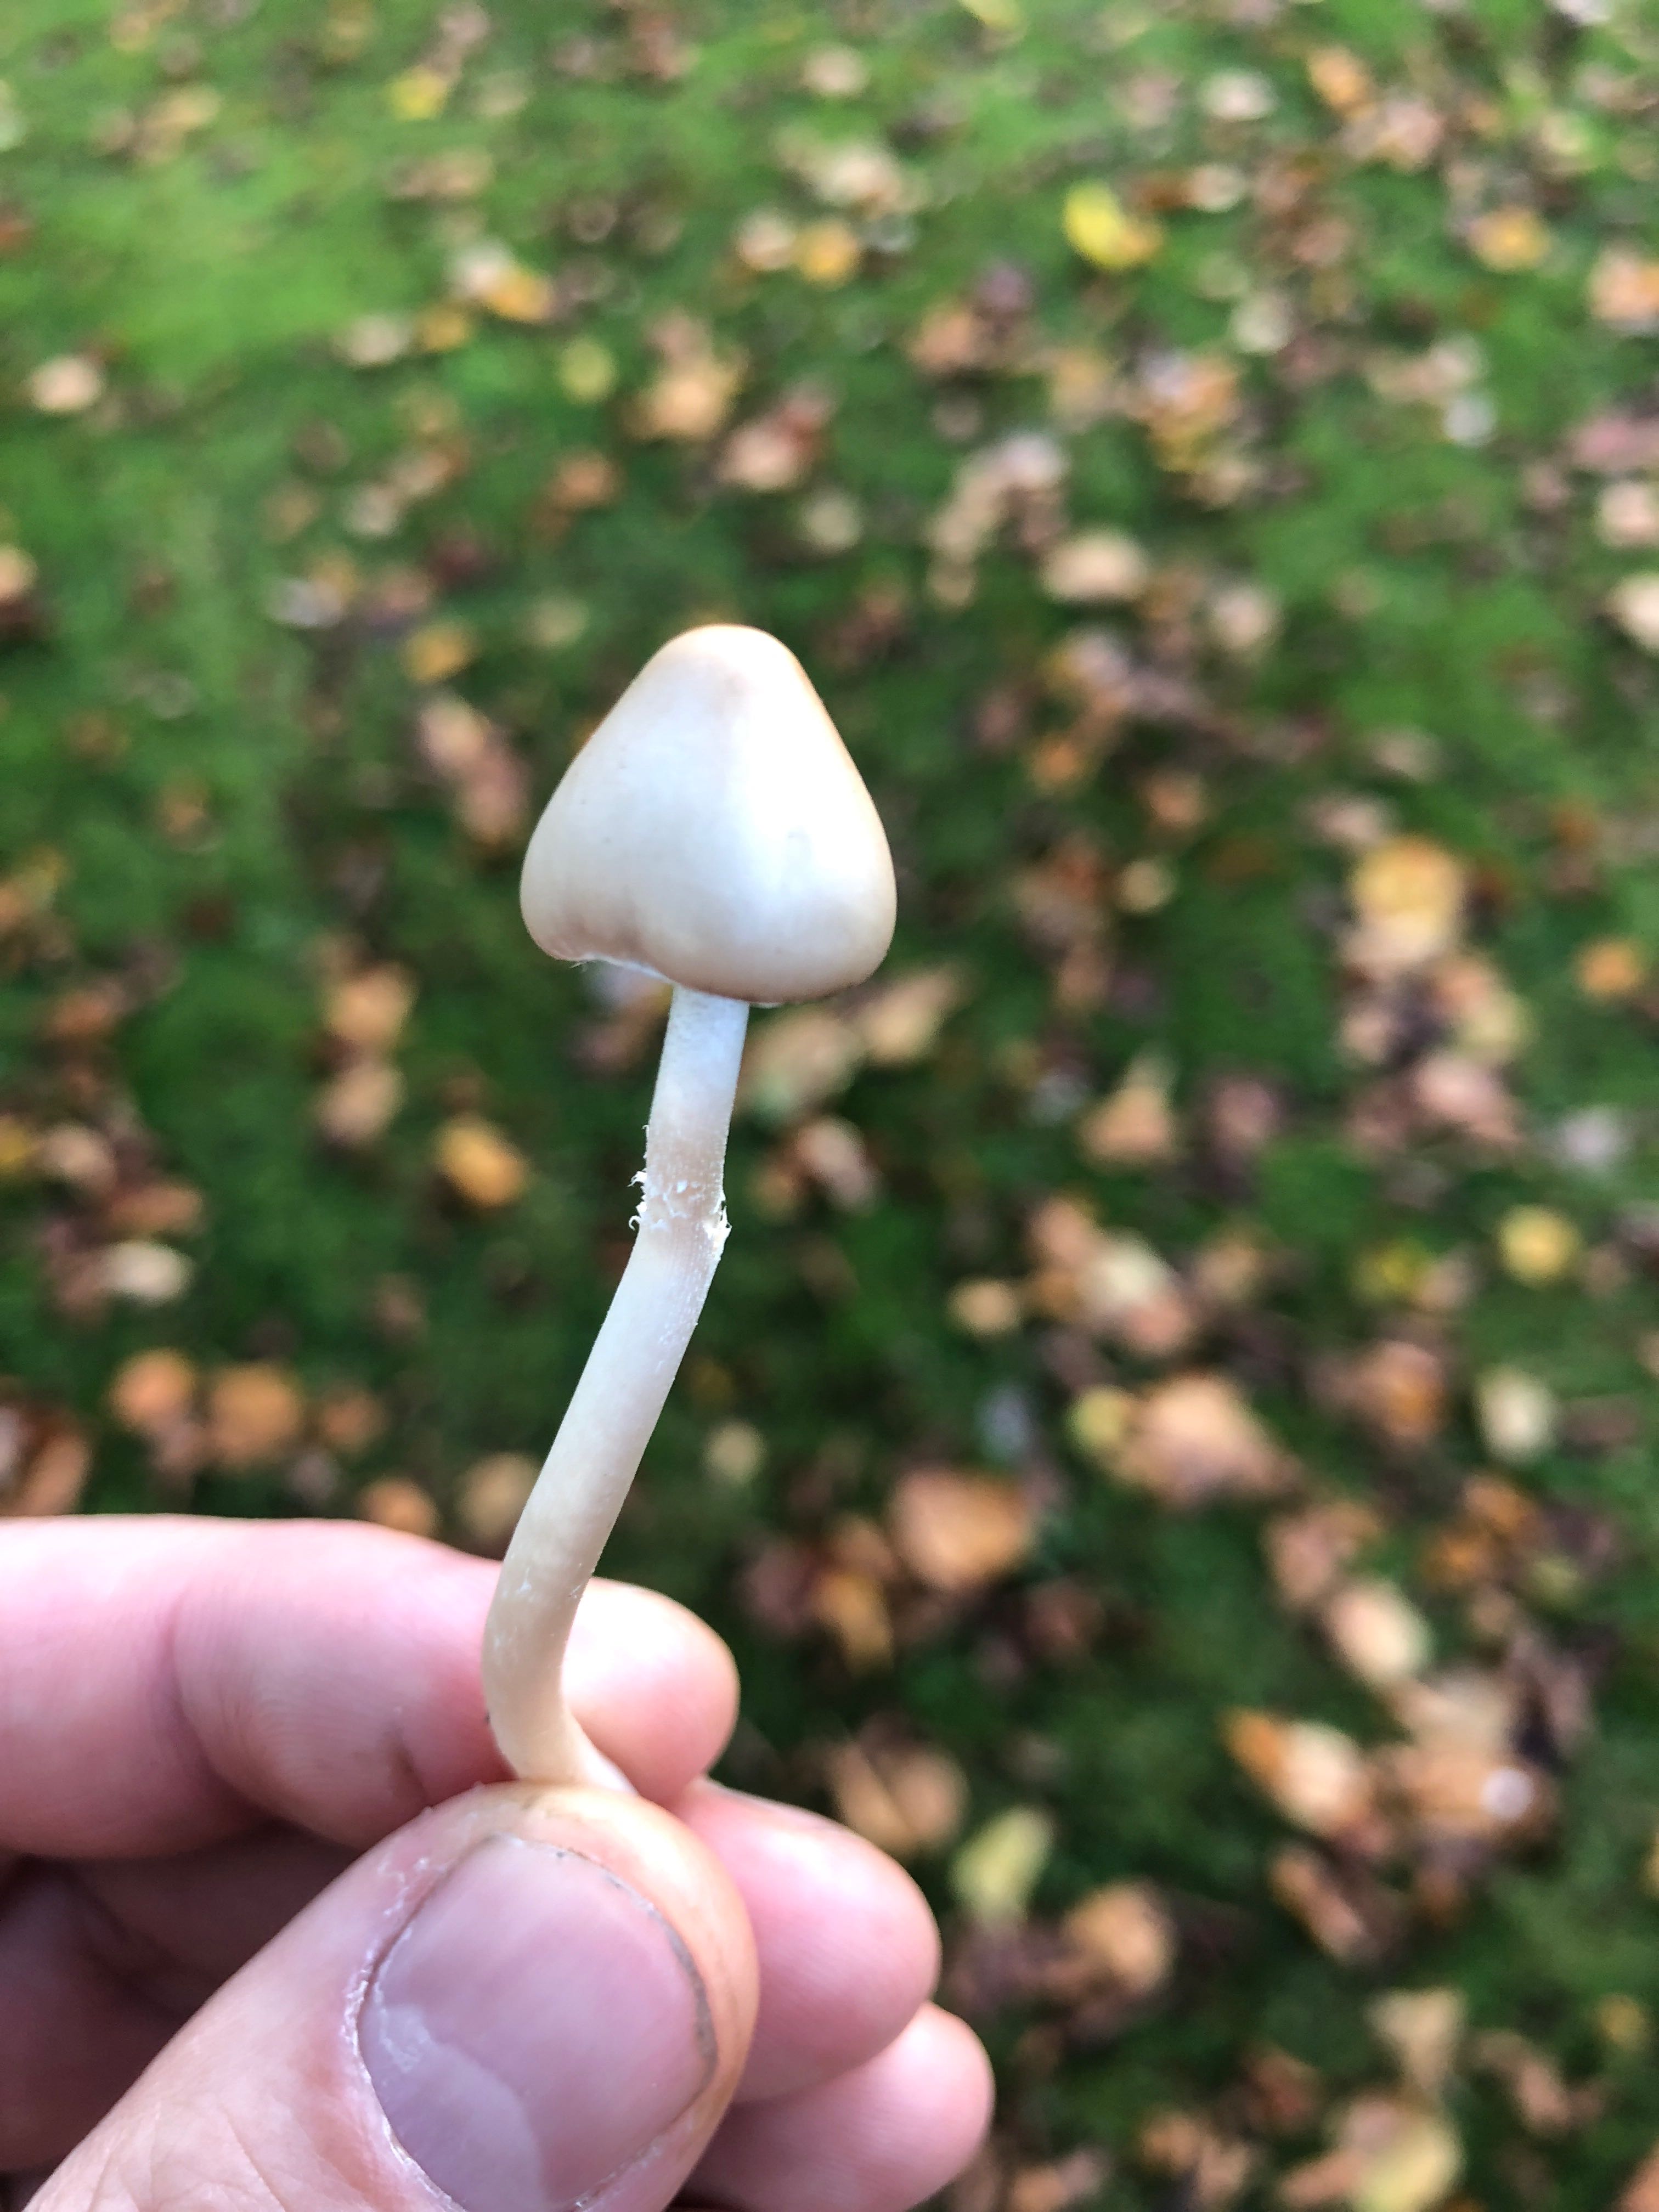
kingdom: Fungi
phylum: Basidiomycota
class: Agaricomycetes
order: Agaricales
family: Psathyrellaceae
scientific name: Psathyrellaceae
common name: mørkhatfamilien
